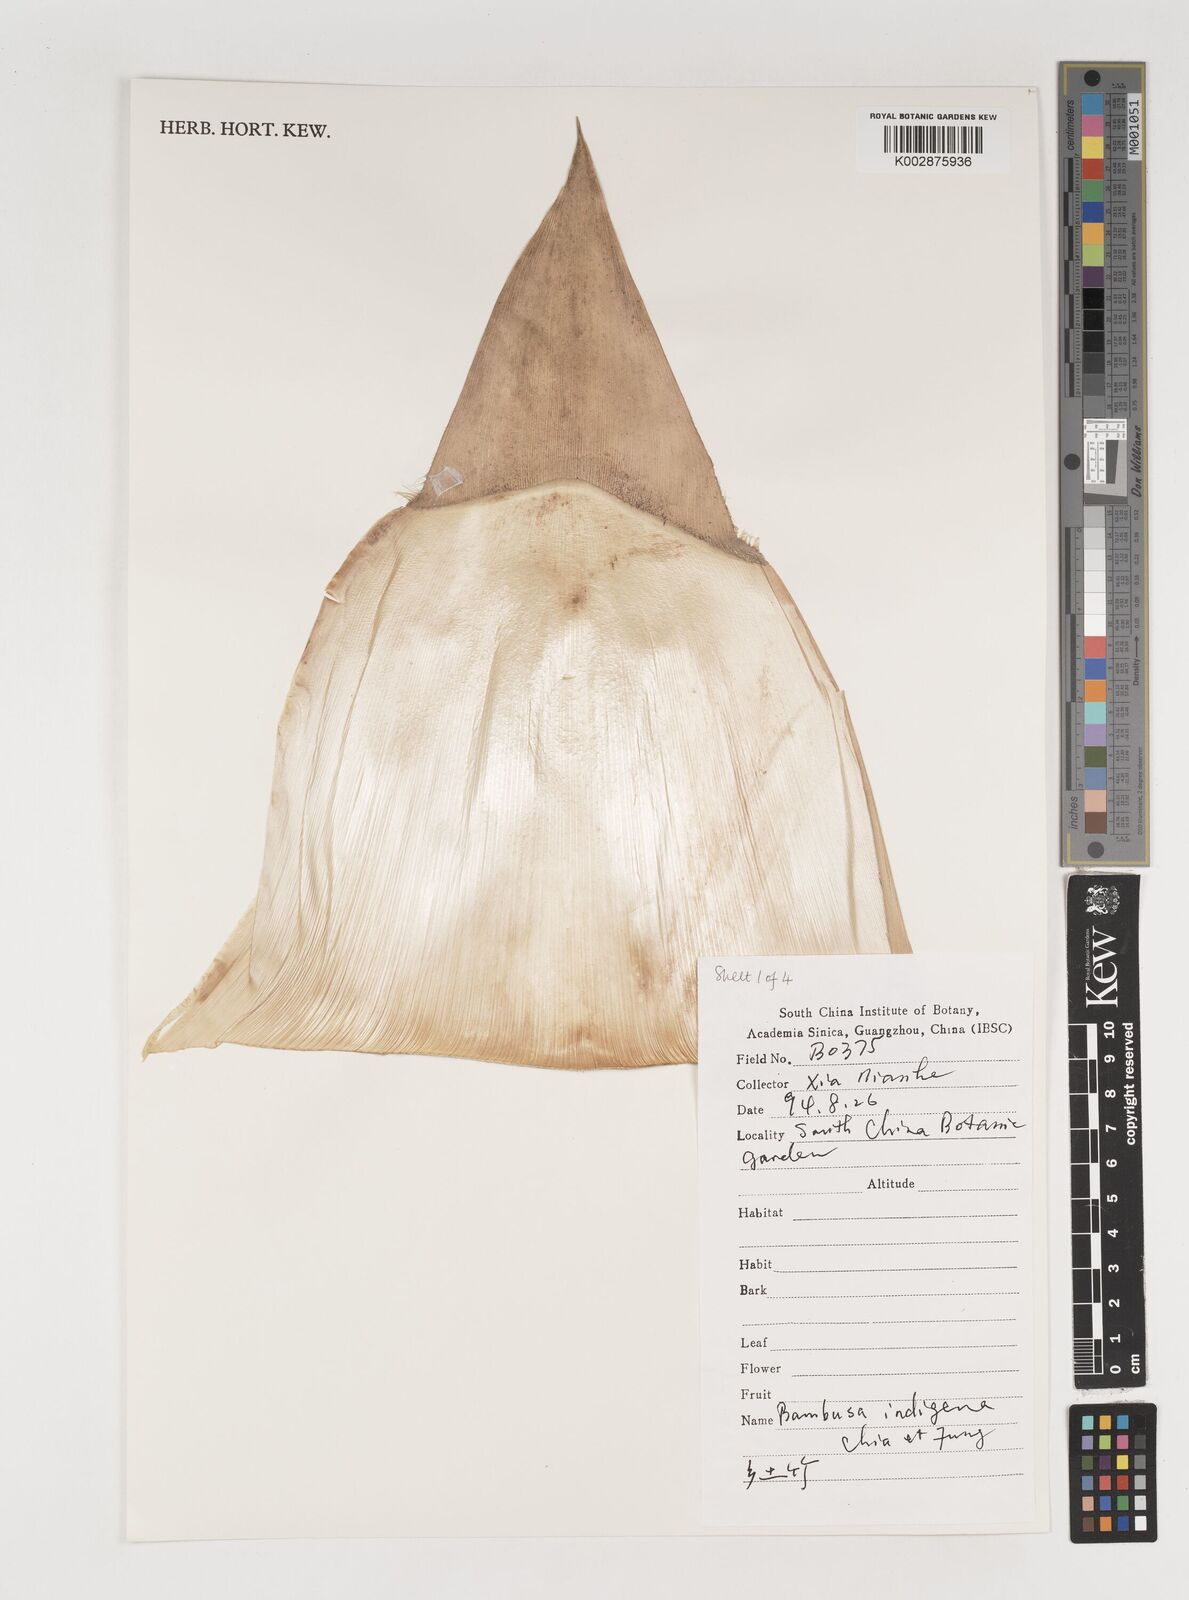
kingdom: Plantae
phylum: Tracheophyta
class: Liliopsida
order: Poales
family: Poaceae
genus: Bambusa
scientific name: Bambusa indigena
